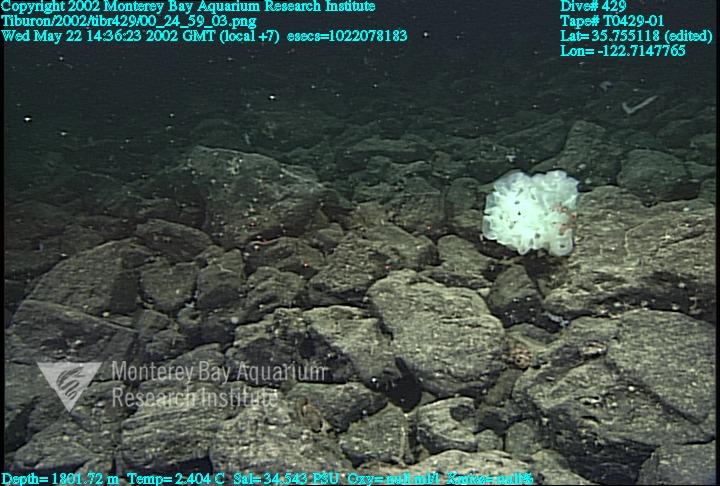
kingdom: Animalia
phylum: Porifera
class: Hexactinellida
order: Sceptrulophora
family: Farreidae
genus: Farrea
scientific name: Farrea occa
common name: Reversed glass sponge
